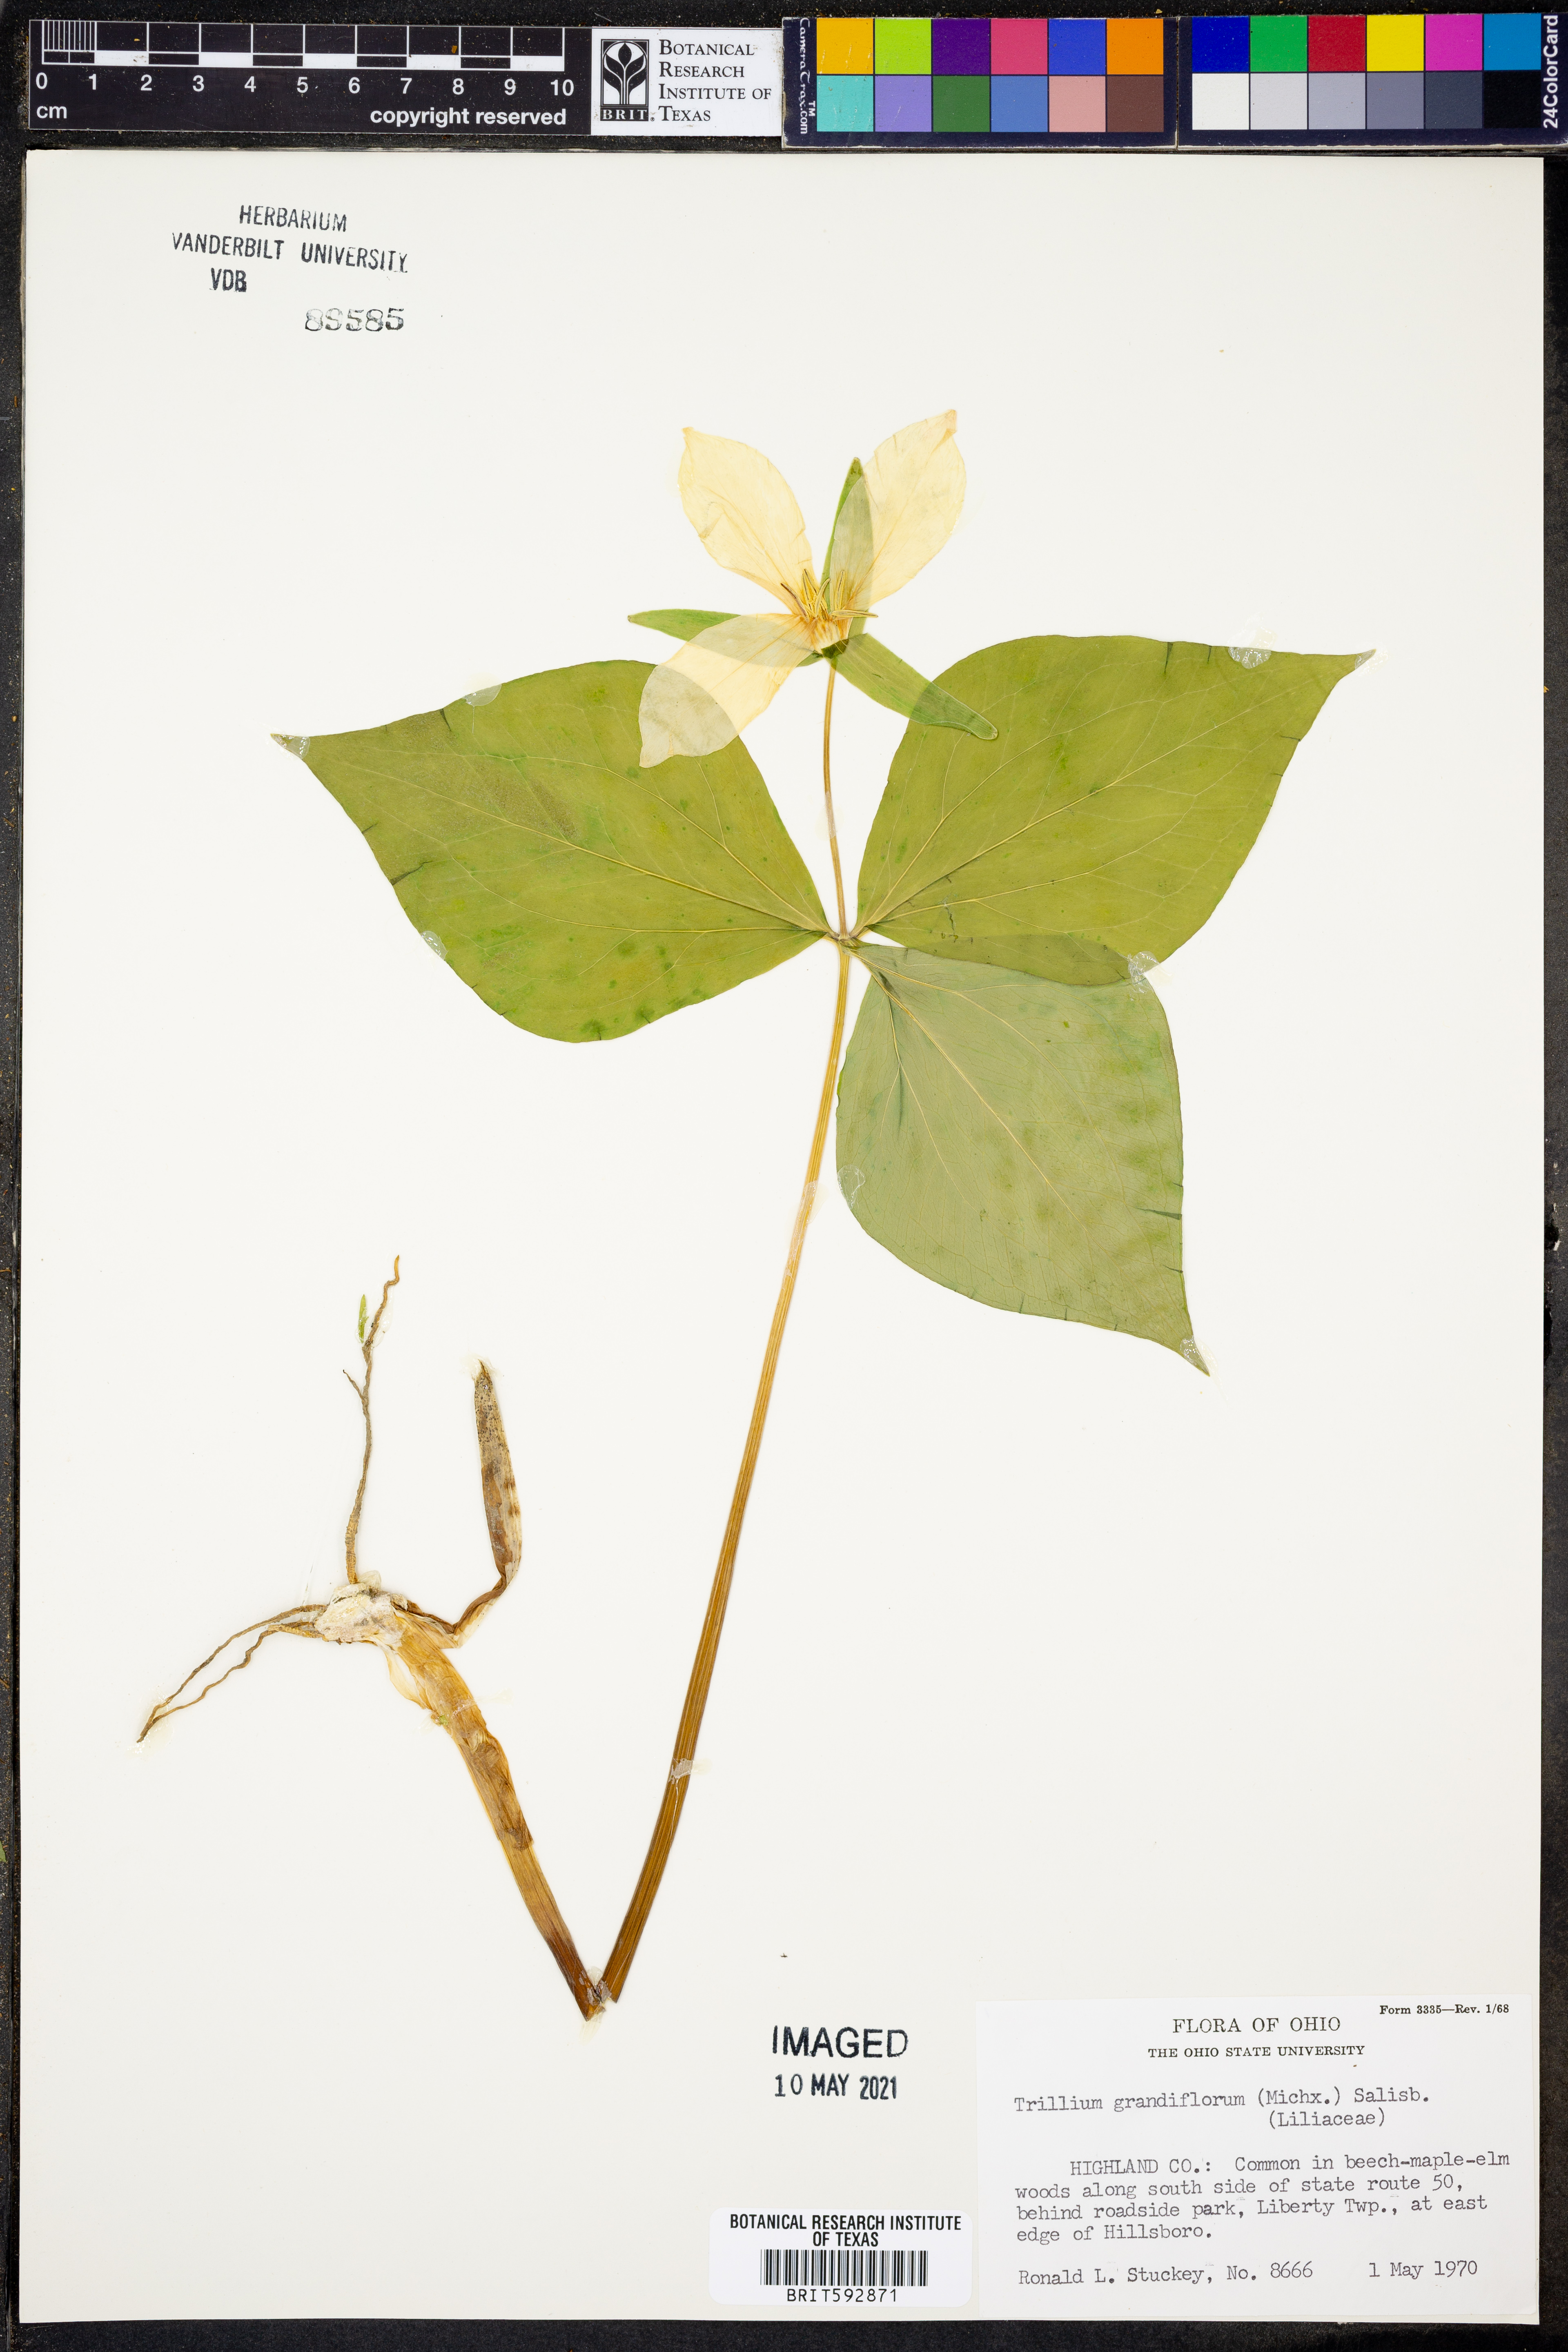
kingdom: Plantae
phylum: Tracheophyta
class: Liliopsida
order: Liliales
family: Melanthiaceae
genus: Trillium
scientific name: Trillium grandiflorum
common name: Great white trillium
